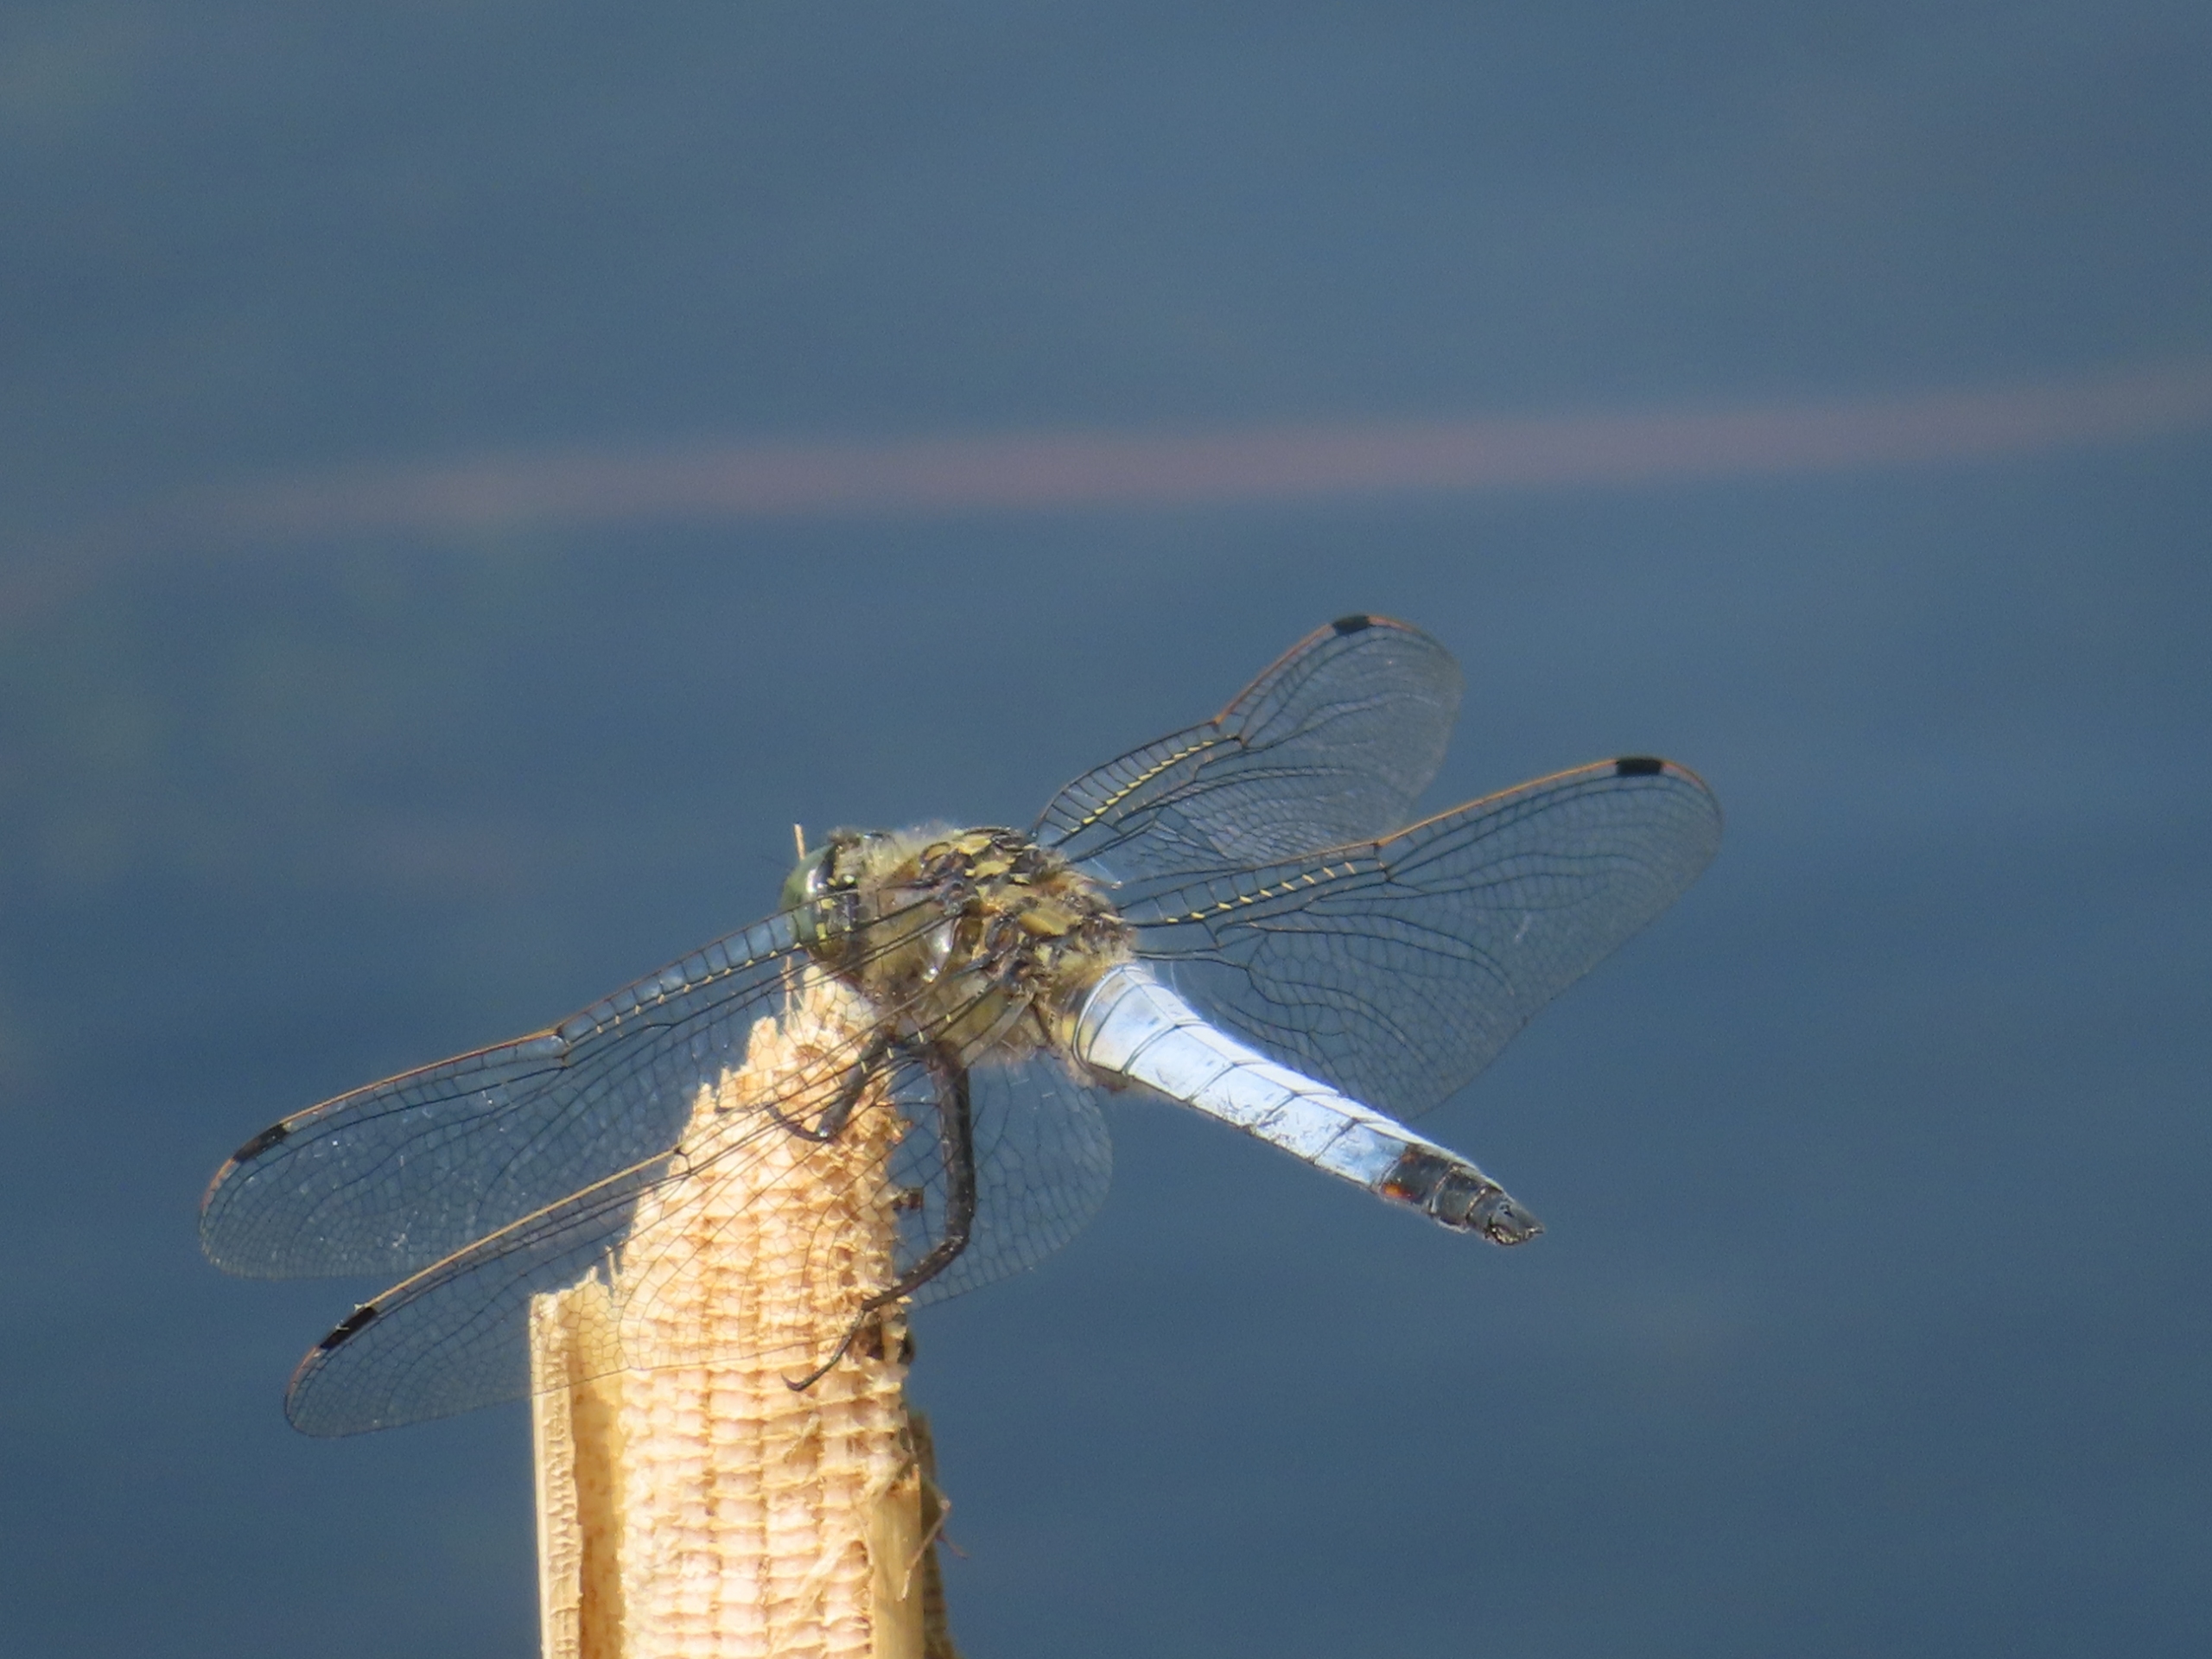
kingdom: Animalia
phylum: Arthropoda
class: Insecta
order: Odonata
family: Libellulidae
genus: Orthetrum
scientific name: Orthetrum cancellatum
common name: Stor blåpil
